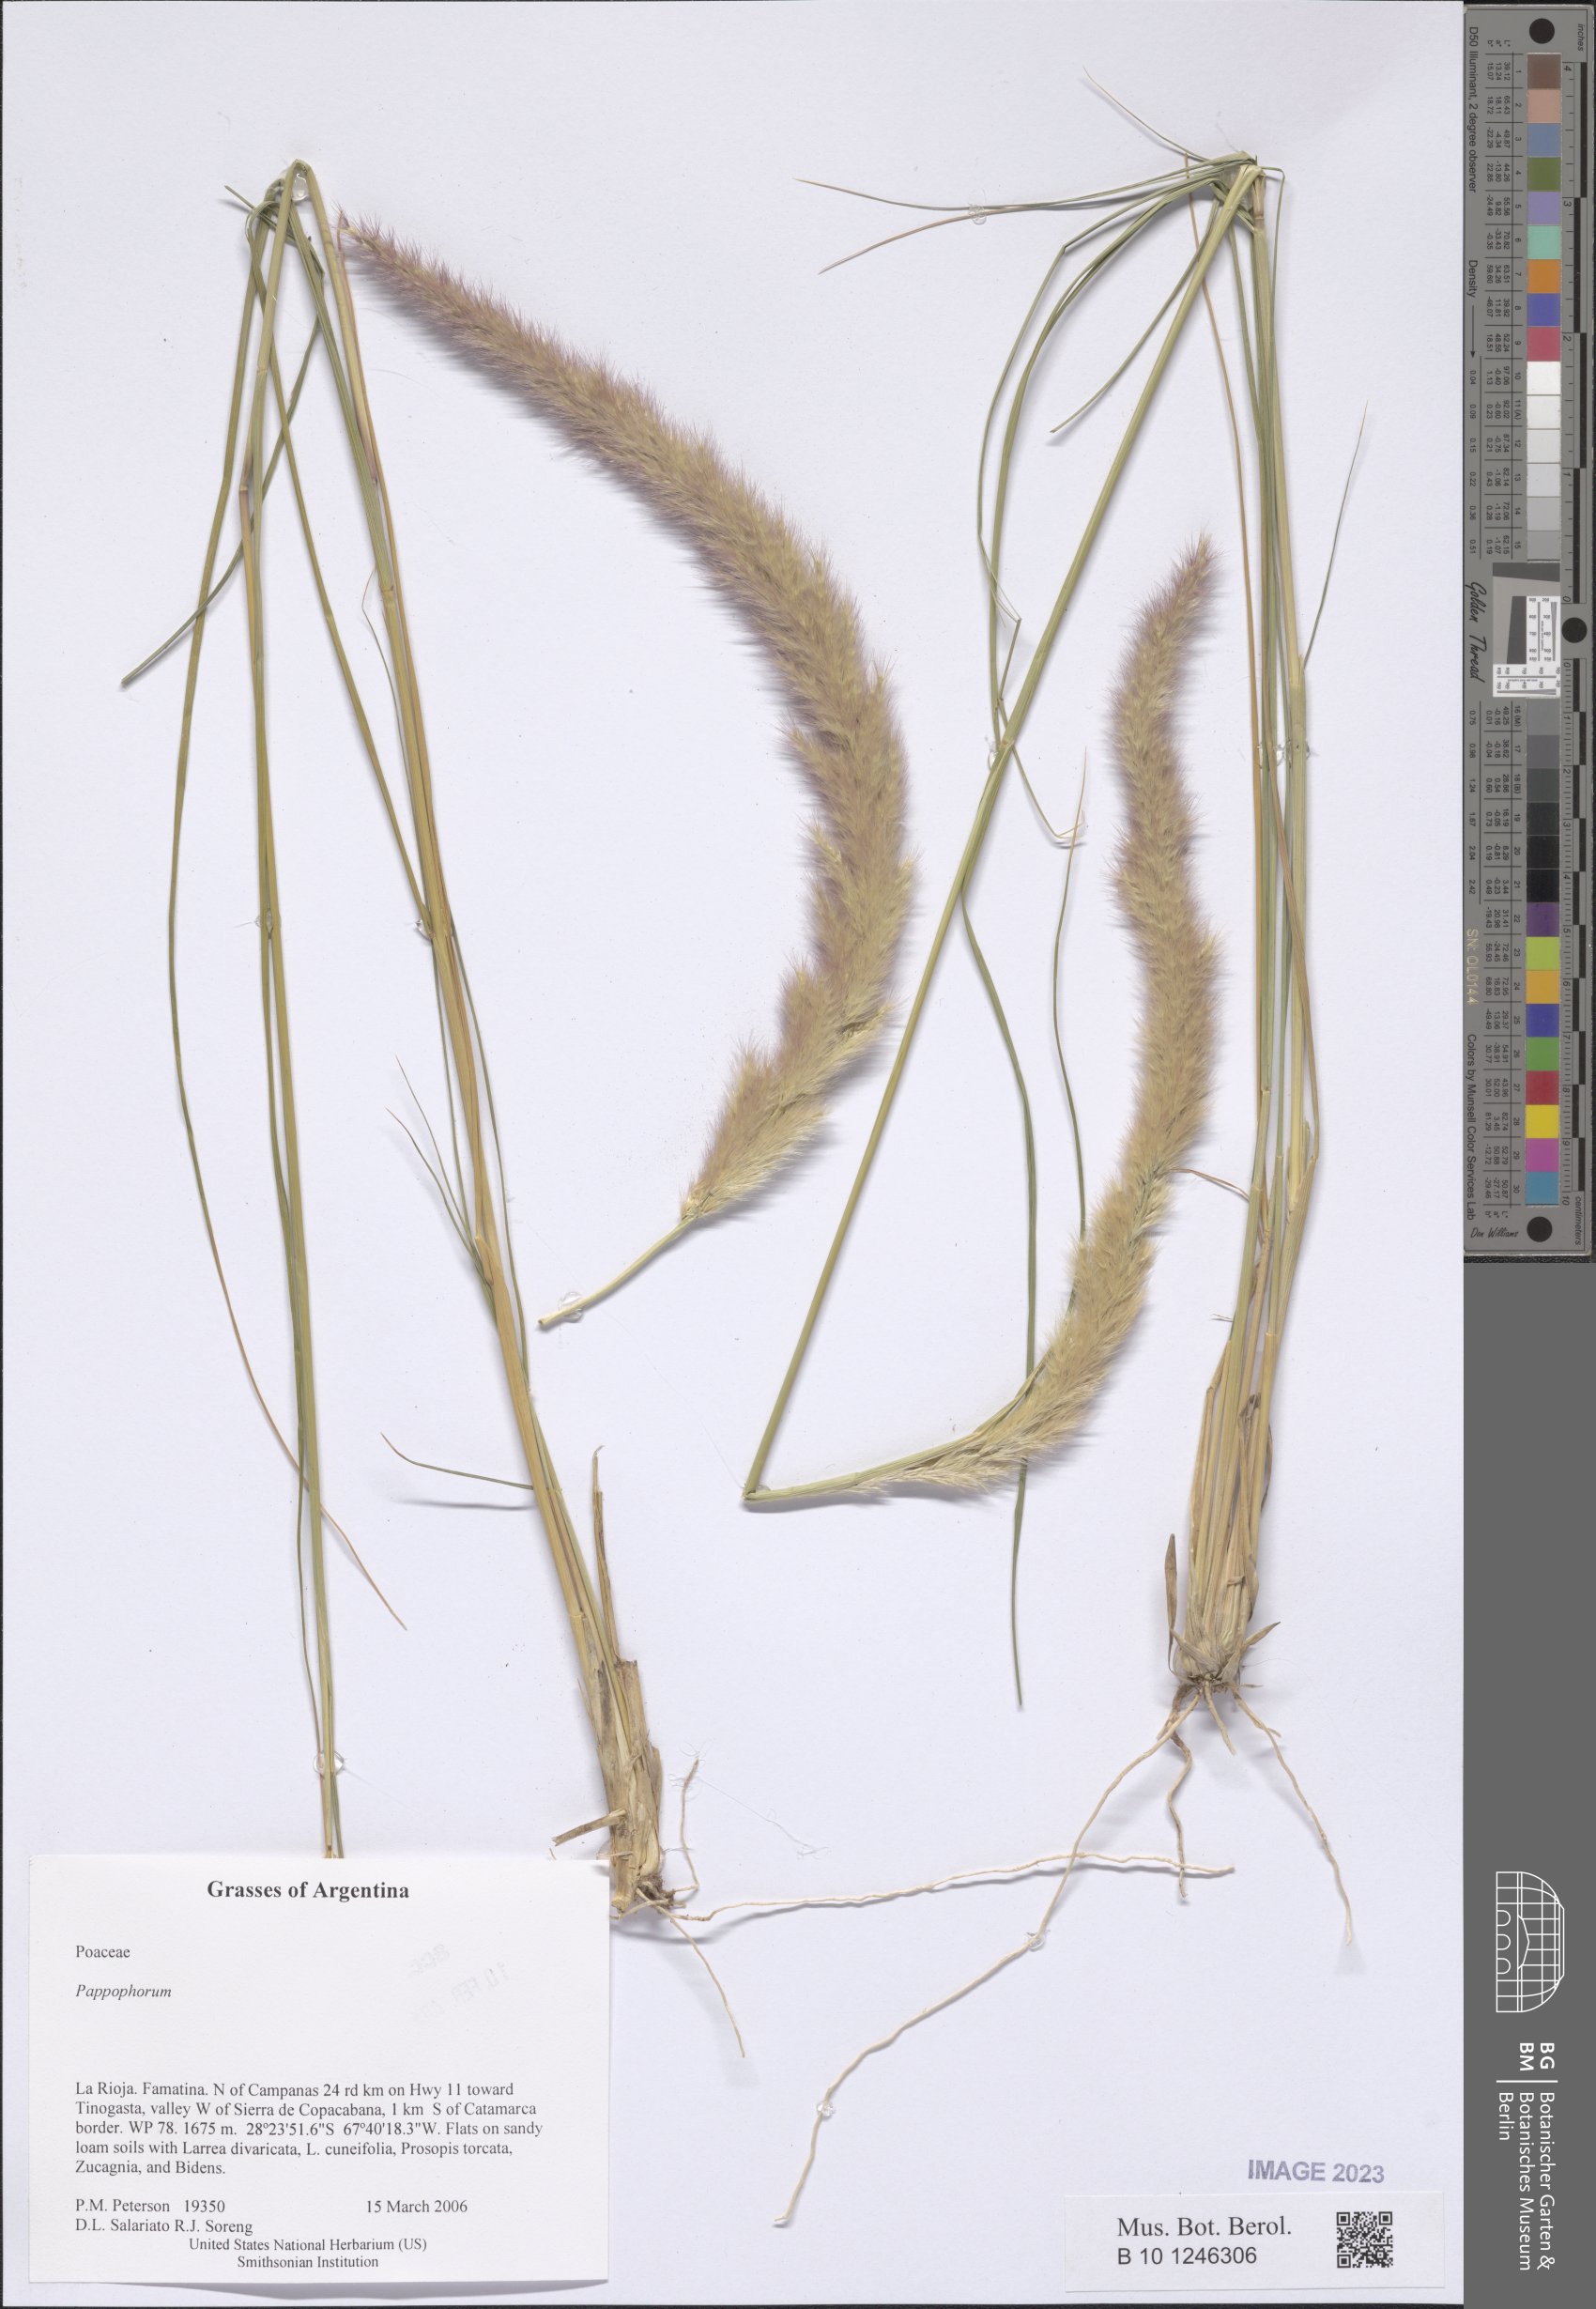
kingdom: Plantae
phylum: Tracheophyta
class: Liliopsida
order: Poales
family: Poaceae
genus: Pappophorum
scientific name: Pappophorum
